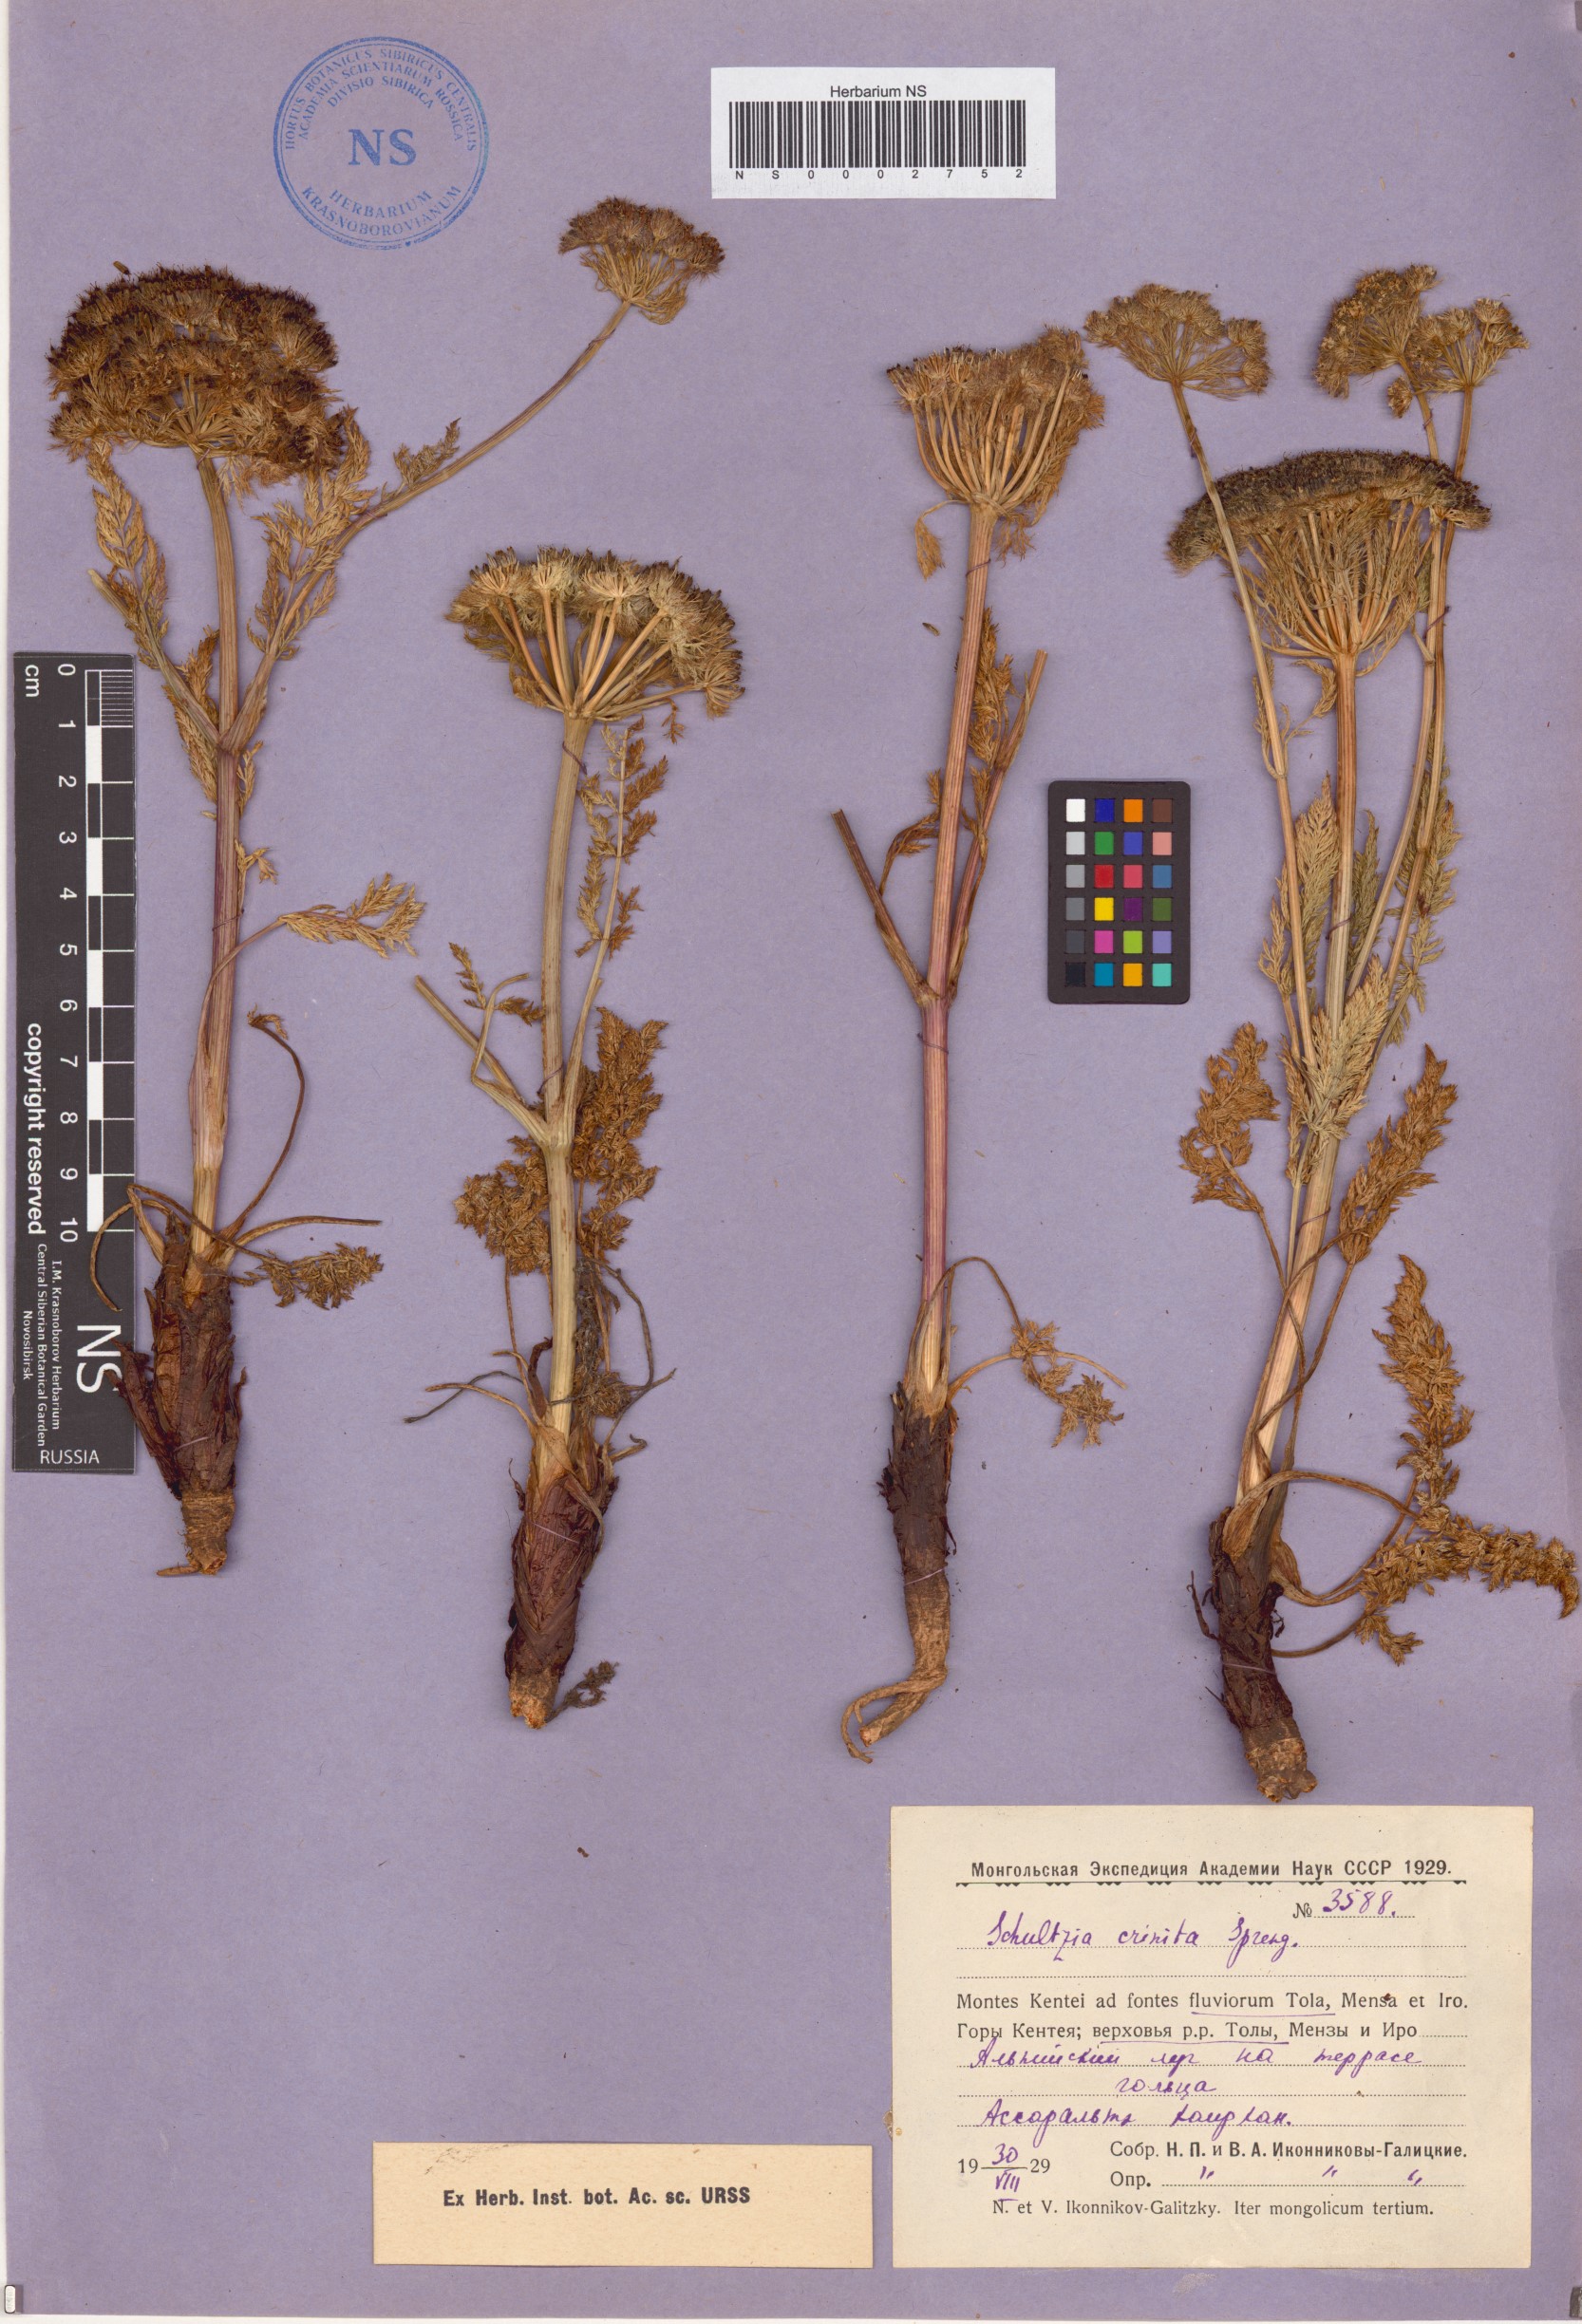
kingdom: Plantae
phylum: Tracheophyta
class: Magnoliopsida
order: Apiales
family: Apiaceae
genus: Schulzia
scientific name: Schulzia crinita
